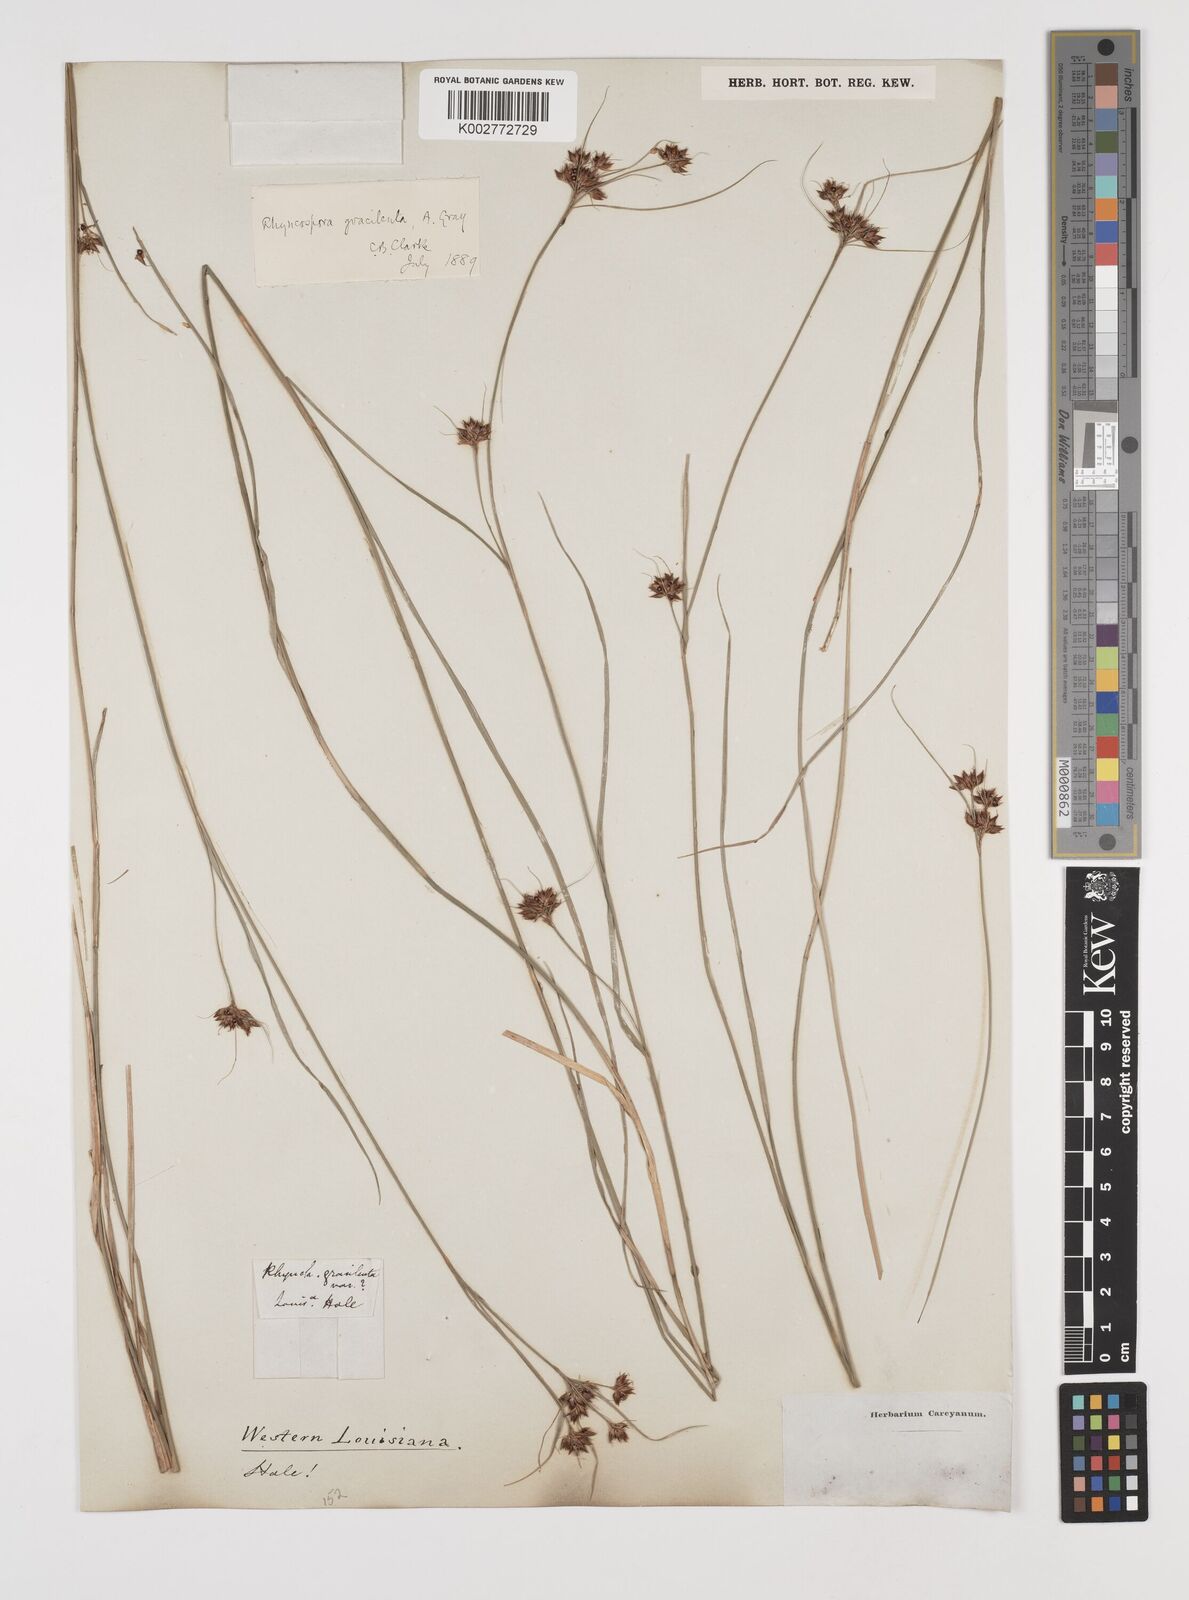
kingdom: Plantae
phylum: Tracheophyta
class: Liliopsida
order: Poales
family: Cyperaceae
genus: Rhynchospora
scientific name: Rhynchospora gracilenta
